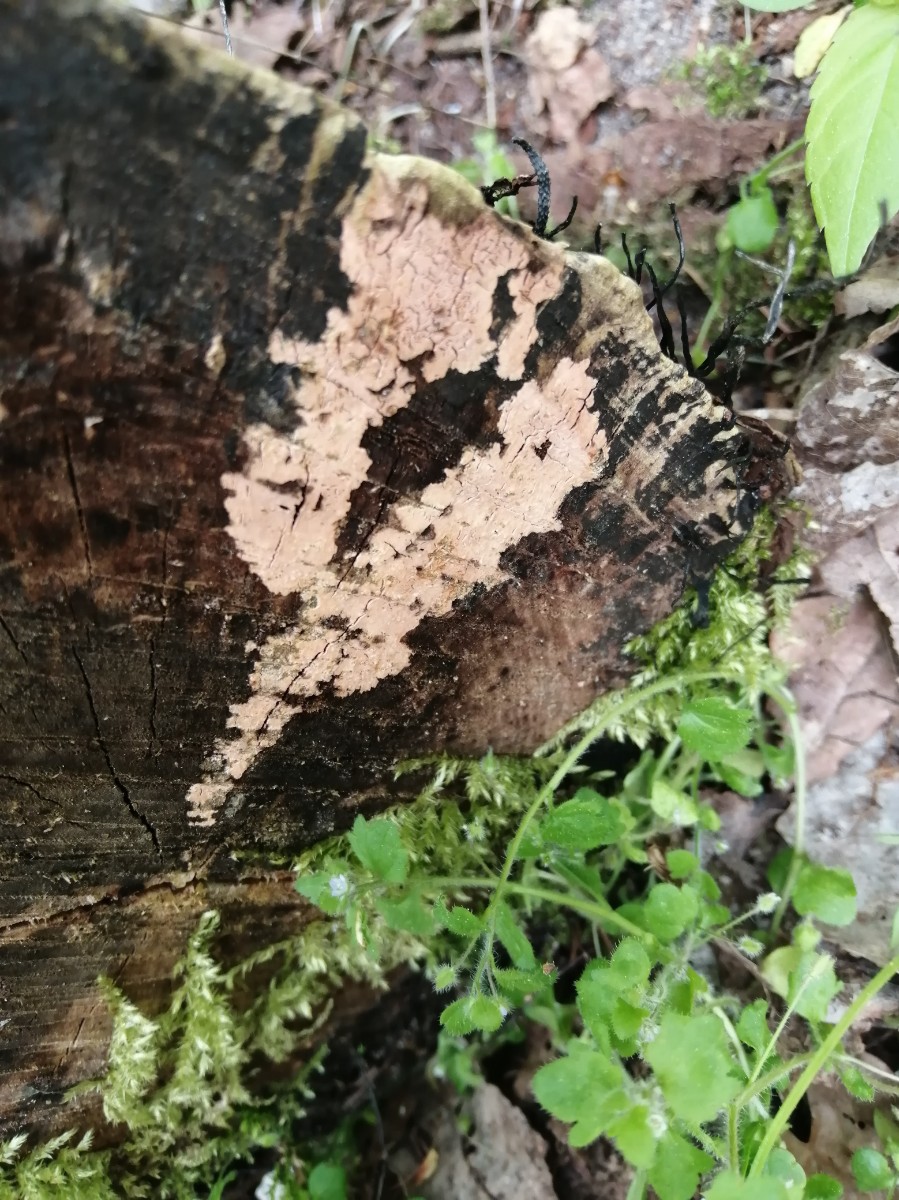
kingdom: Fungi
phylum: Basidiomycota
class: Agaricomycetes
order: Corticiales
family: Corticiaceae
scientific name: Corticiaceae
